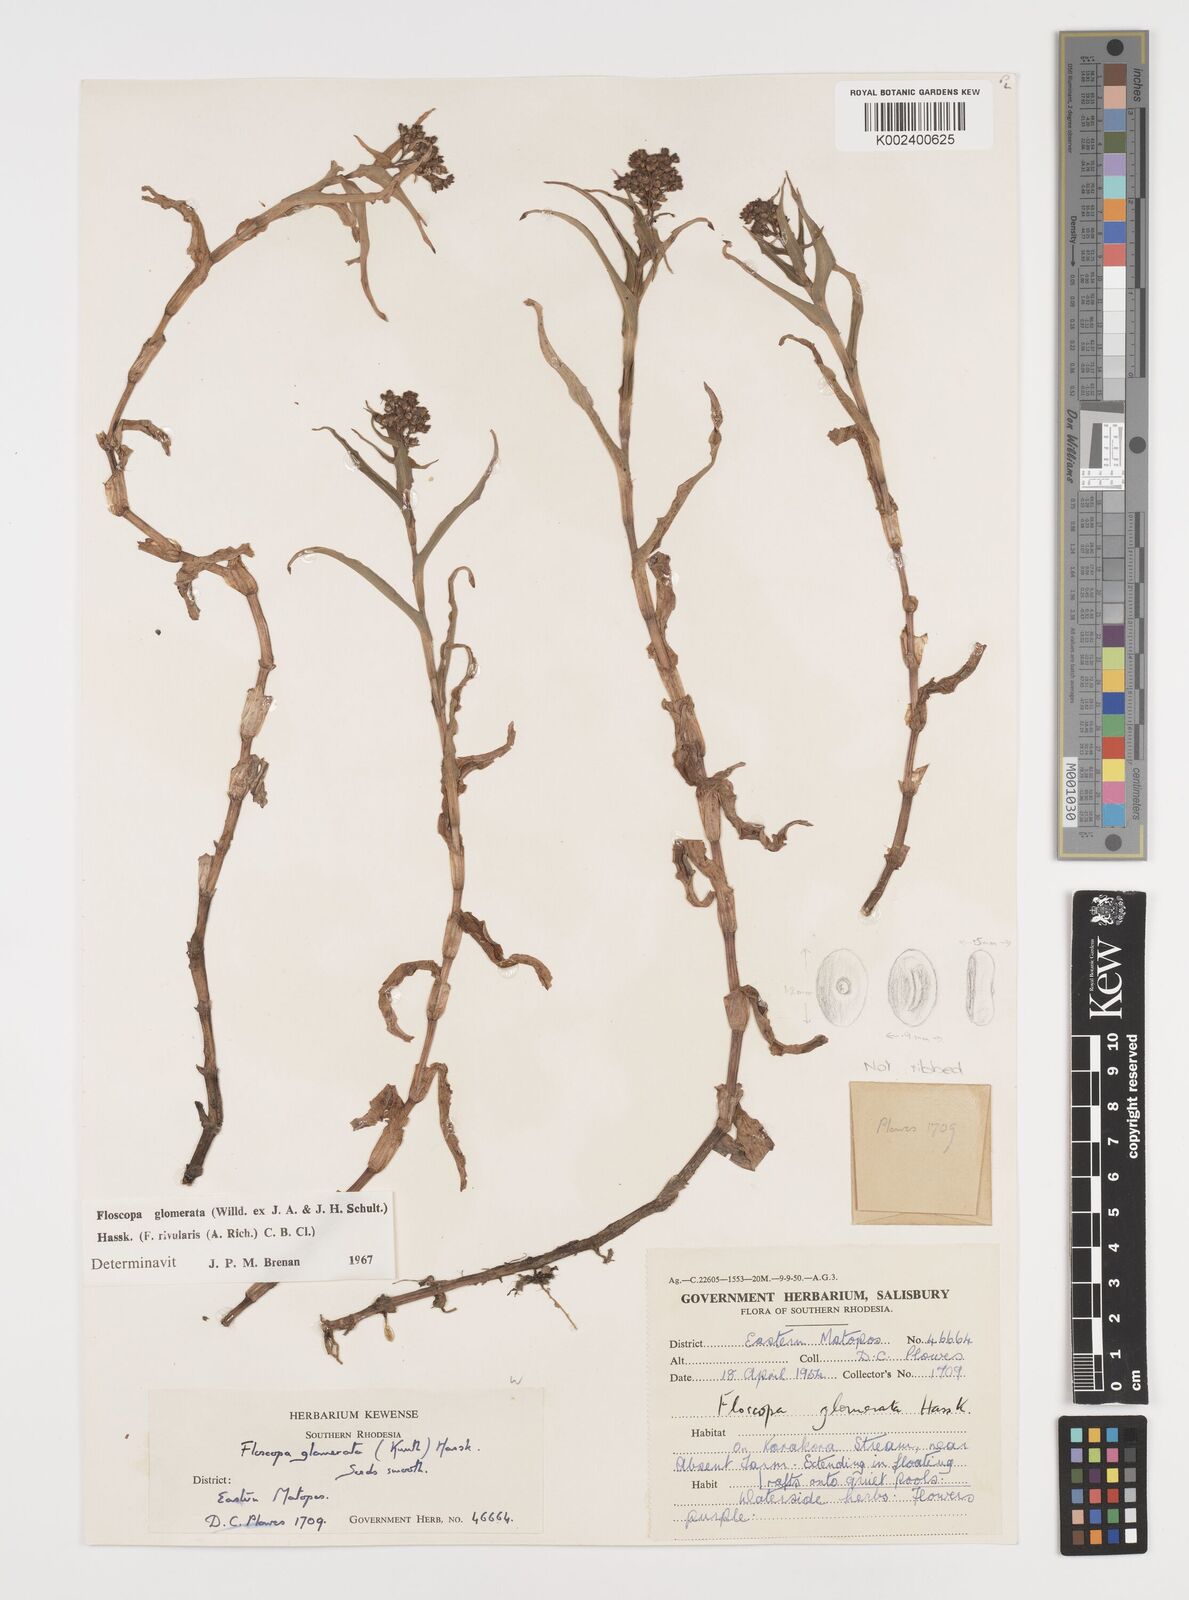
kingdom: Plantae
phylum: Tracheophyta
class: Liliopsida
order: Commelinales
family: Commelinaceae
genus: Floscopa
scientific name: Floscopa glomerata
